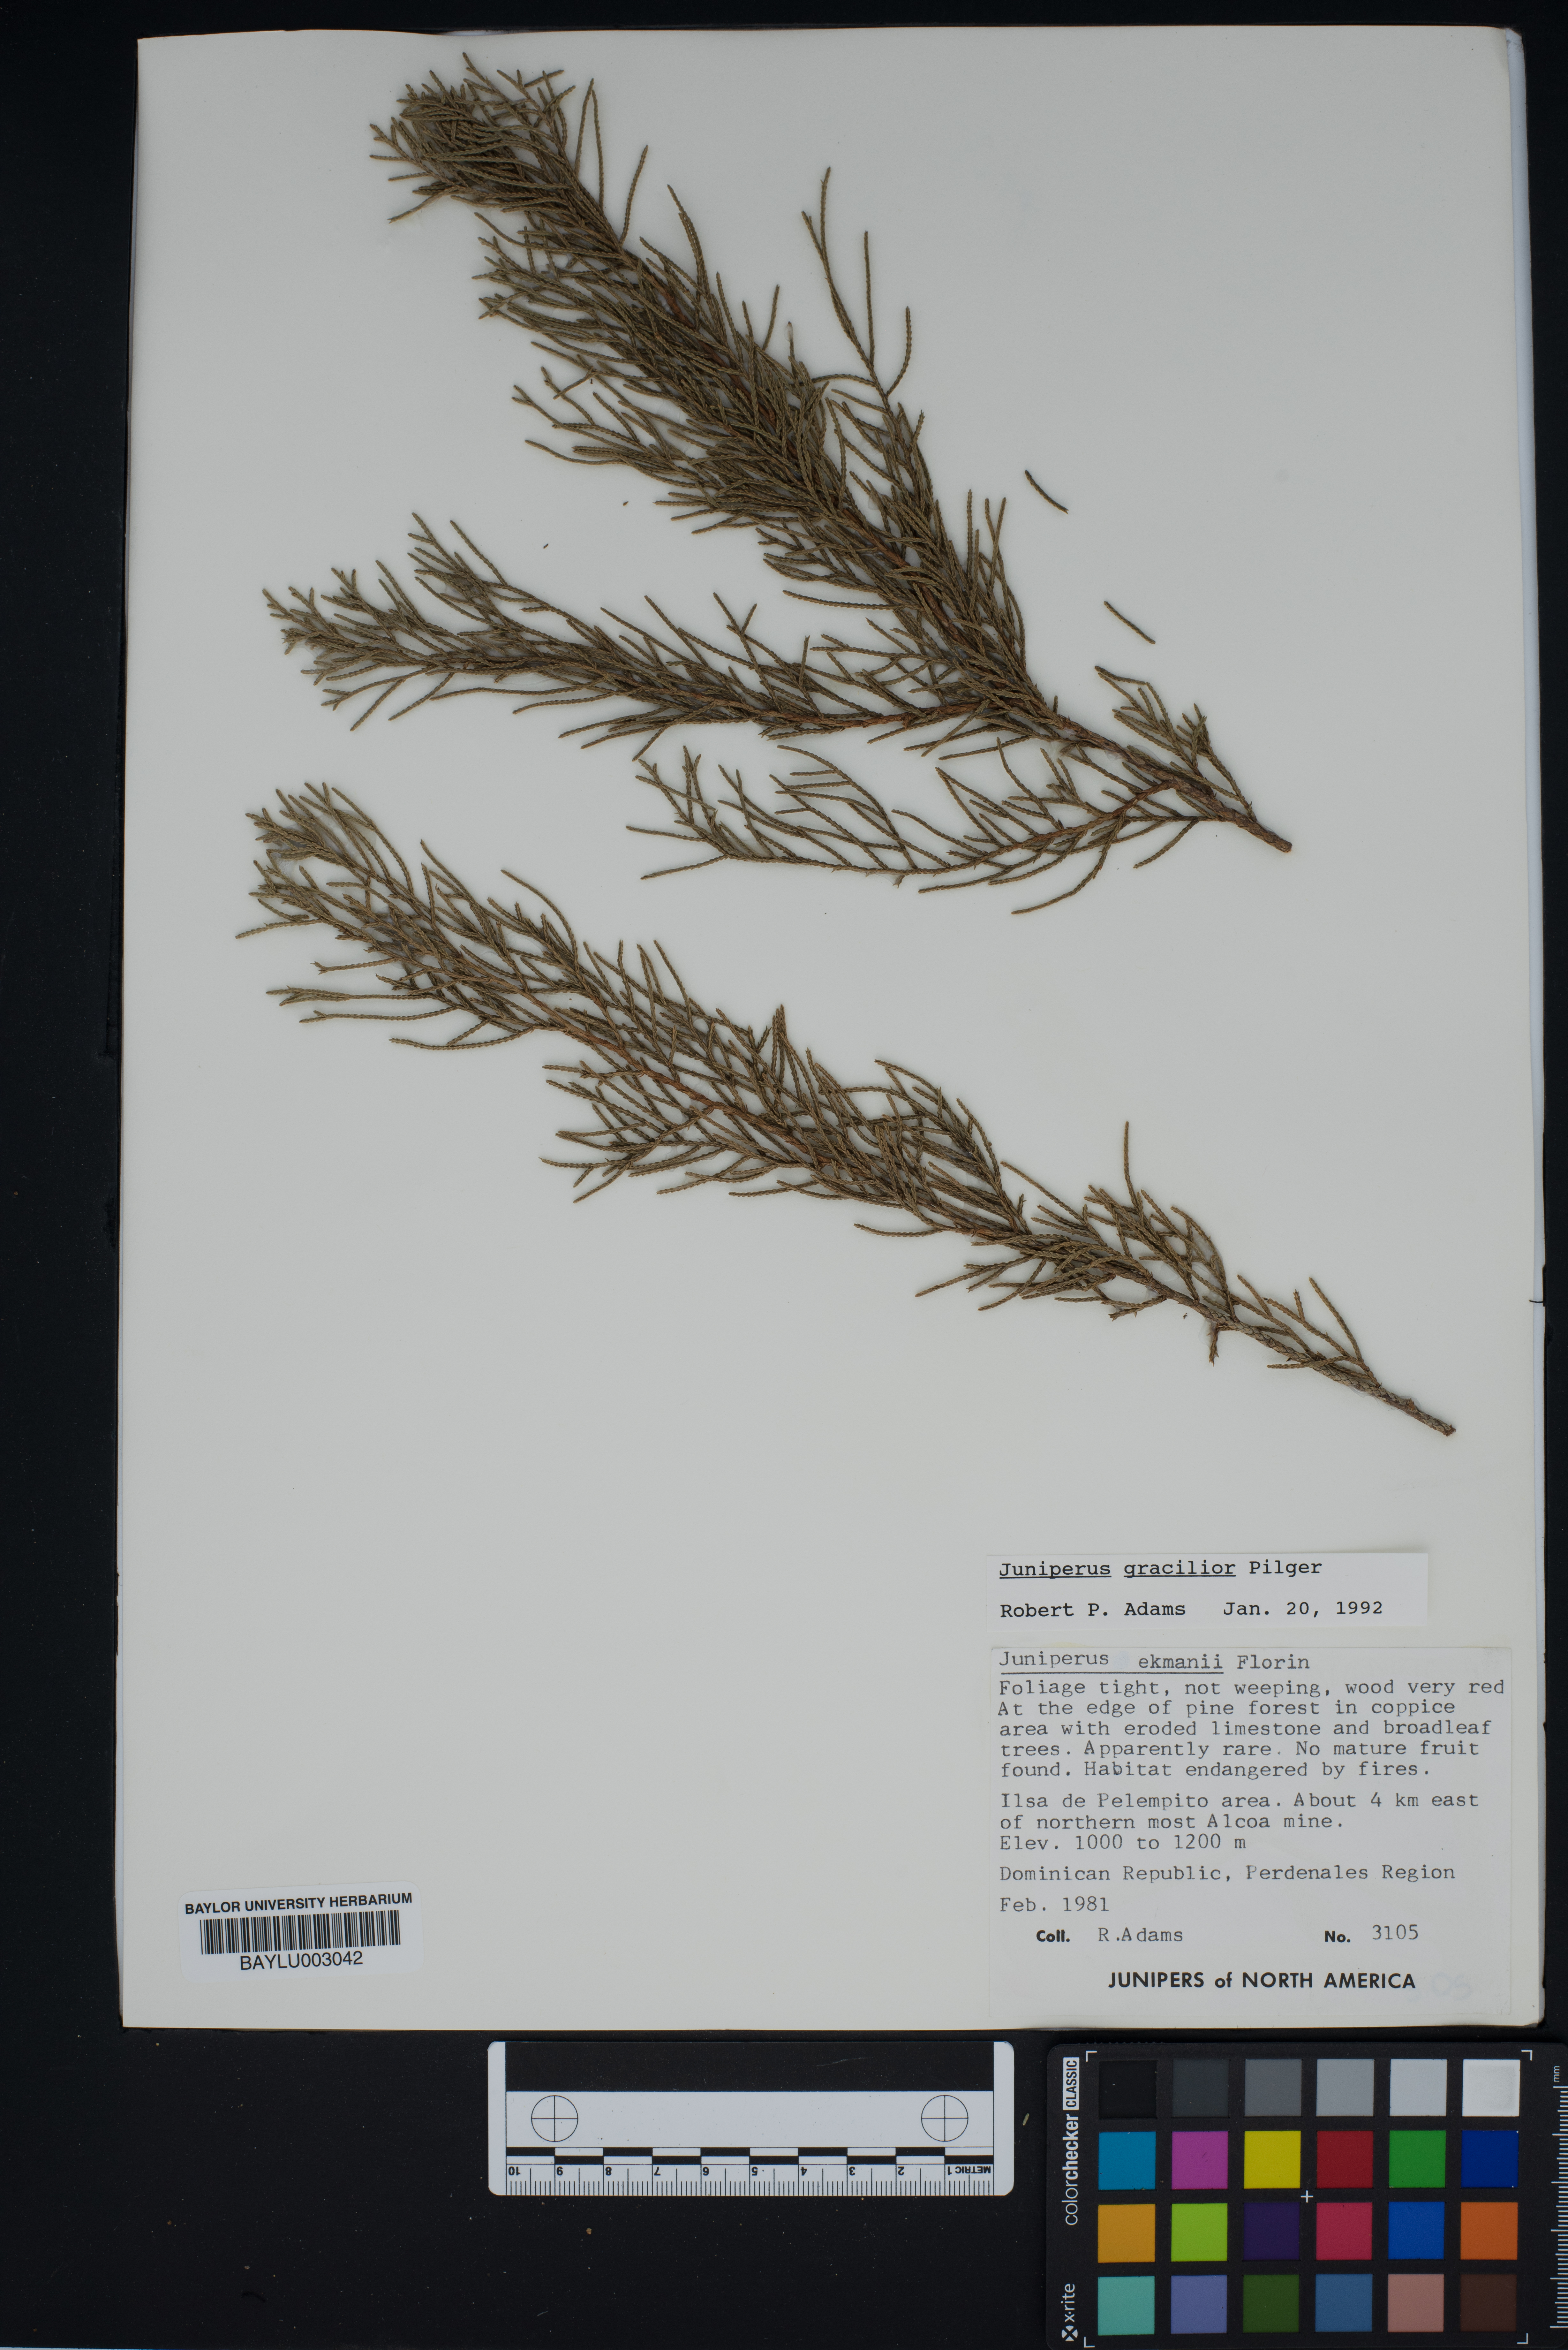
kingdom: Plantae
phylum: Tracheophyta
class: Pinopsida
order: Pinales
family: Cupressaceae
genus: Juniperus
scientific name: Juniperus gracilior
